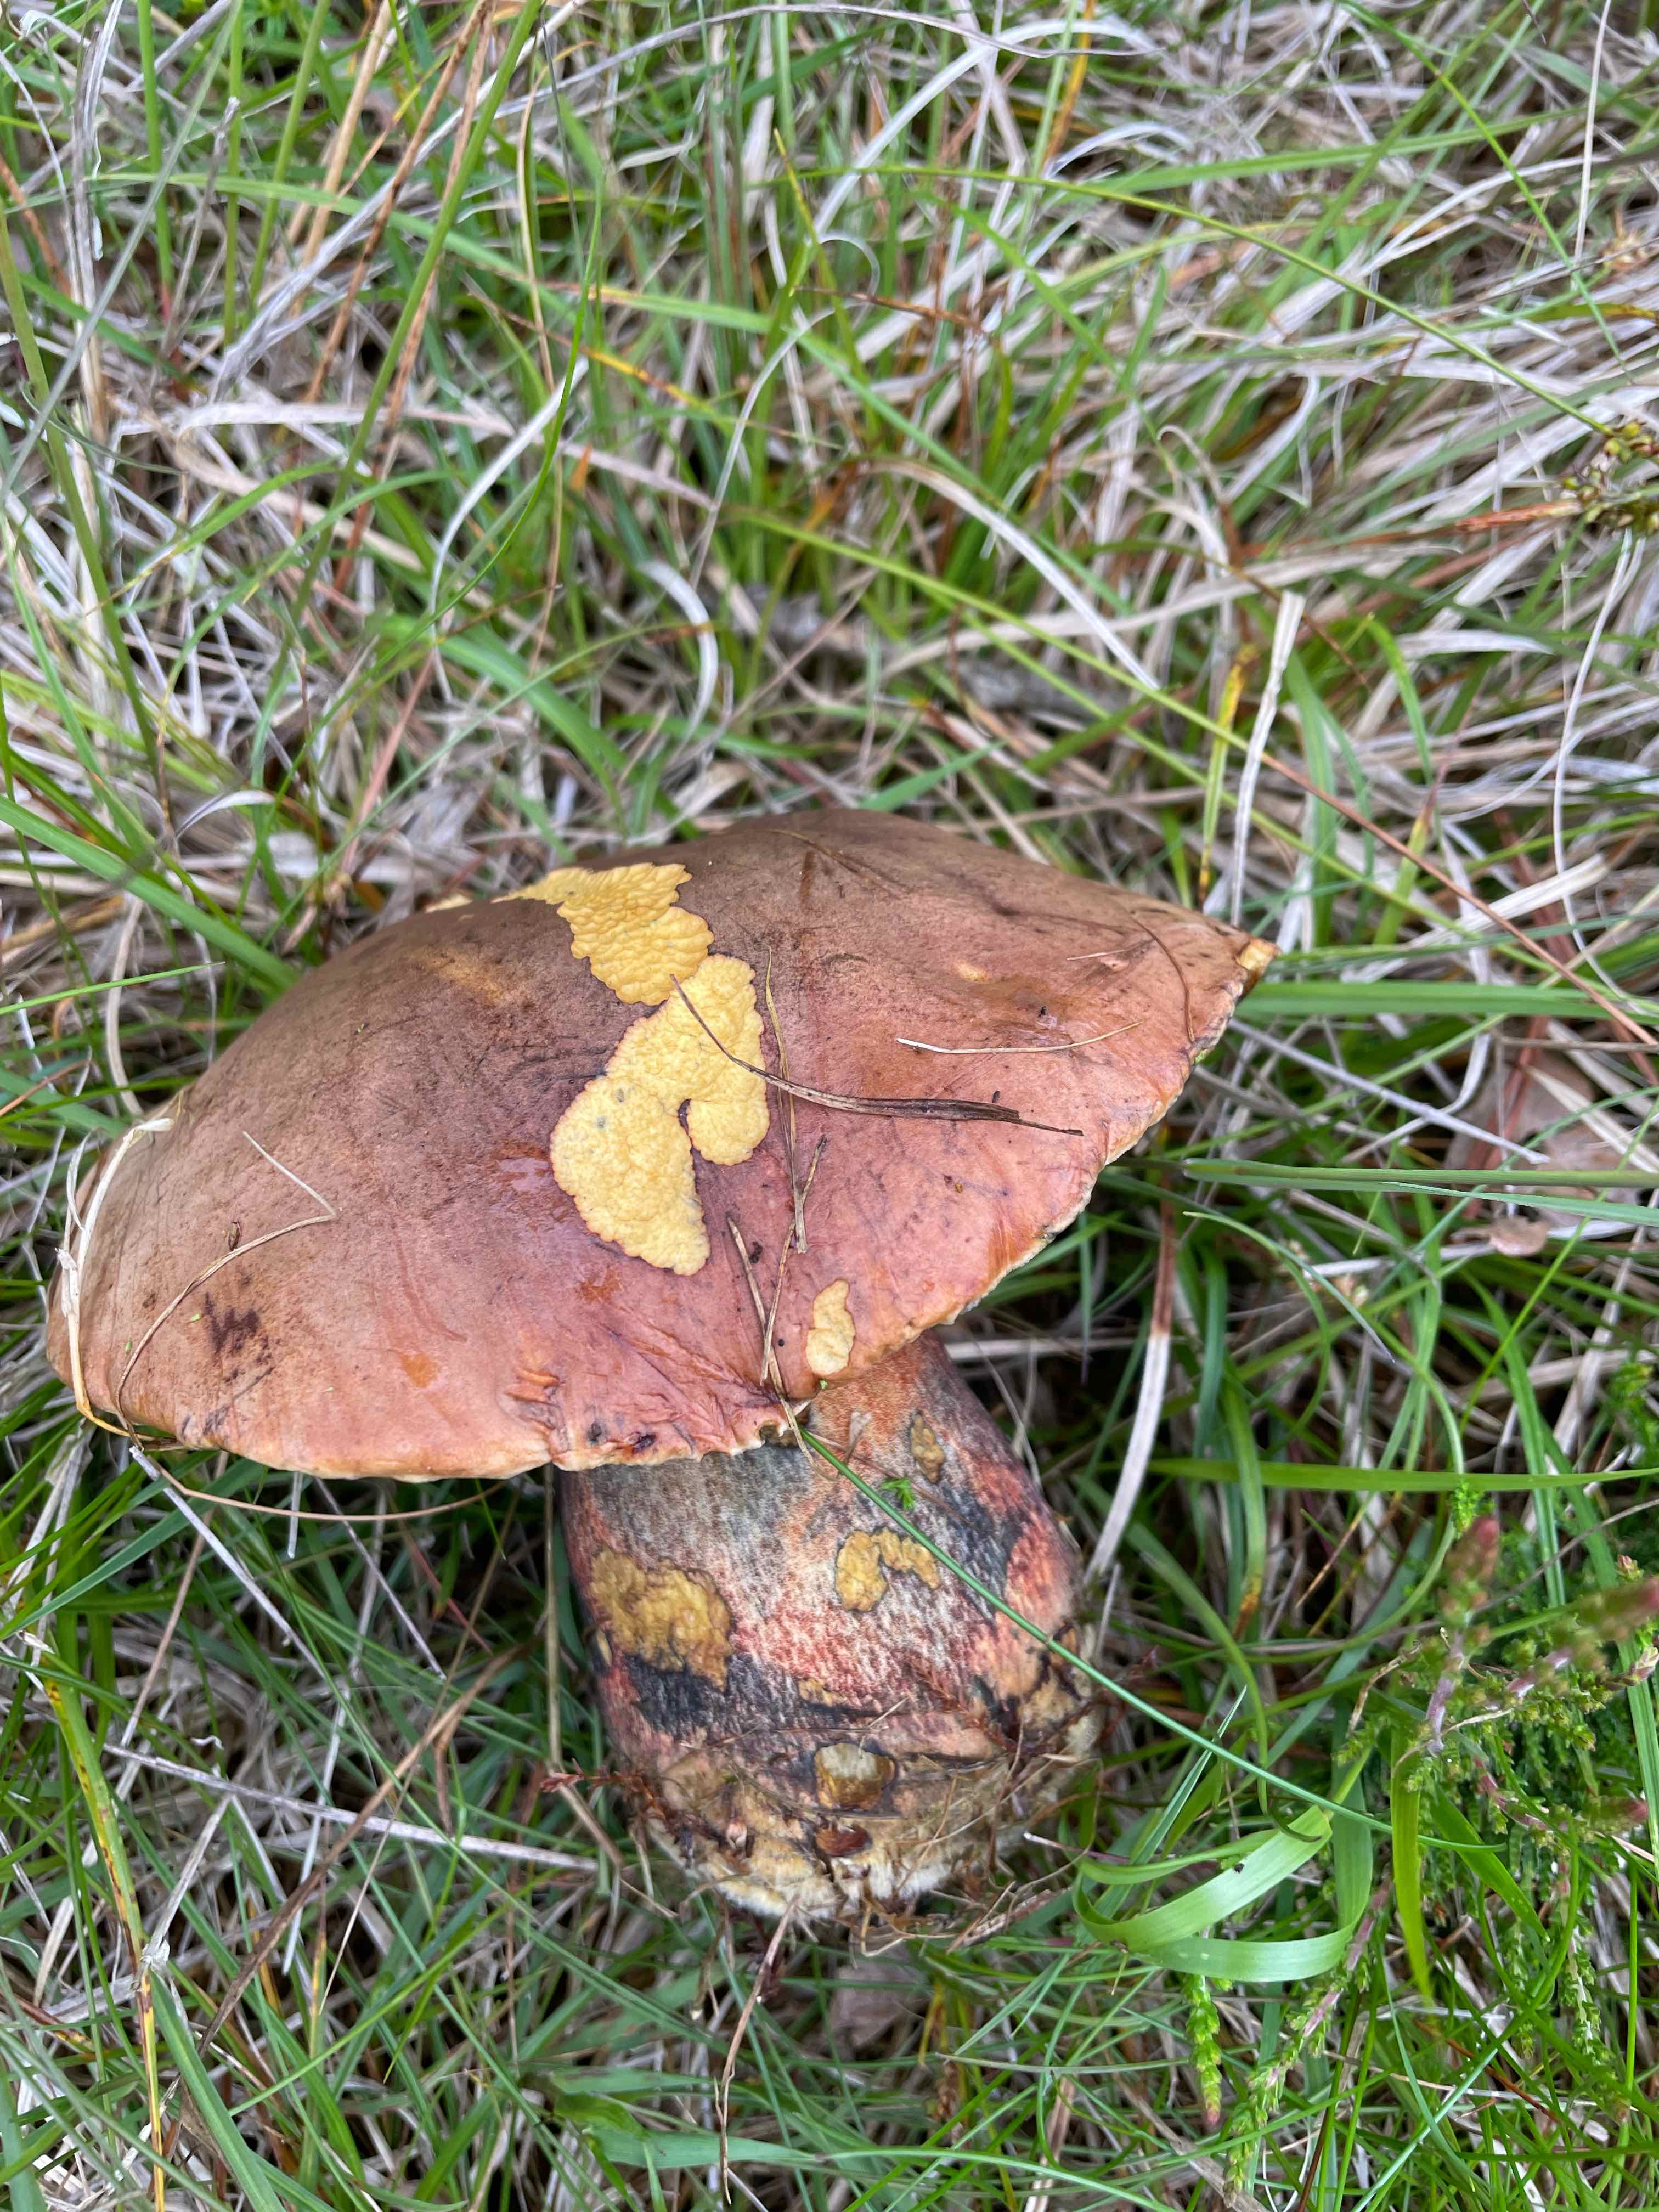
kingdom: Fungi
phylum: Basidiomycota
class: Agaricomycetes
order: Boletales
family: Boletaceae
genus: Neoboletus
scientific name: Neoboletus erythropus
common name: punktstokket indigorørhat
